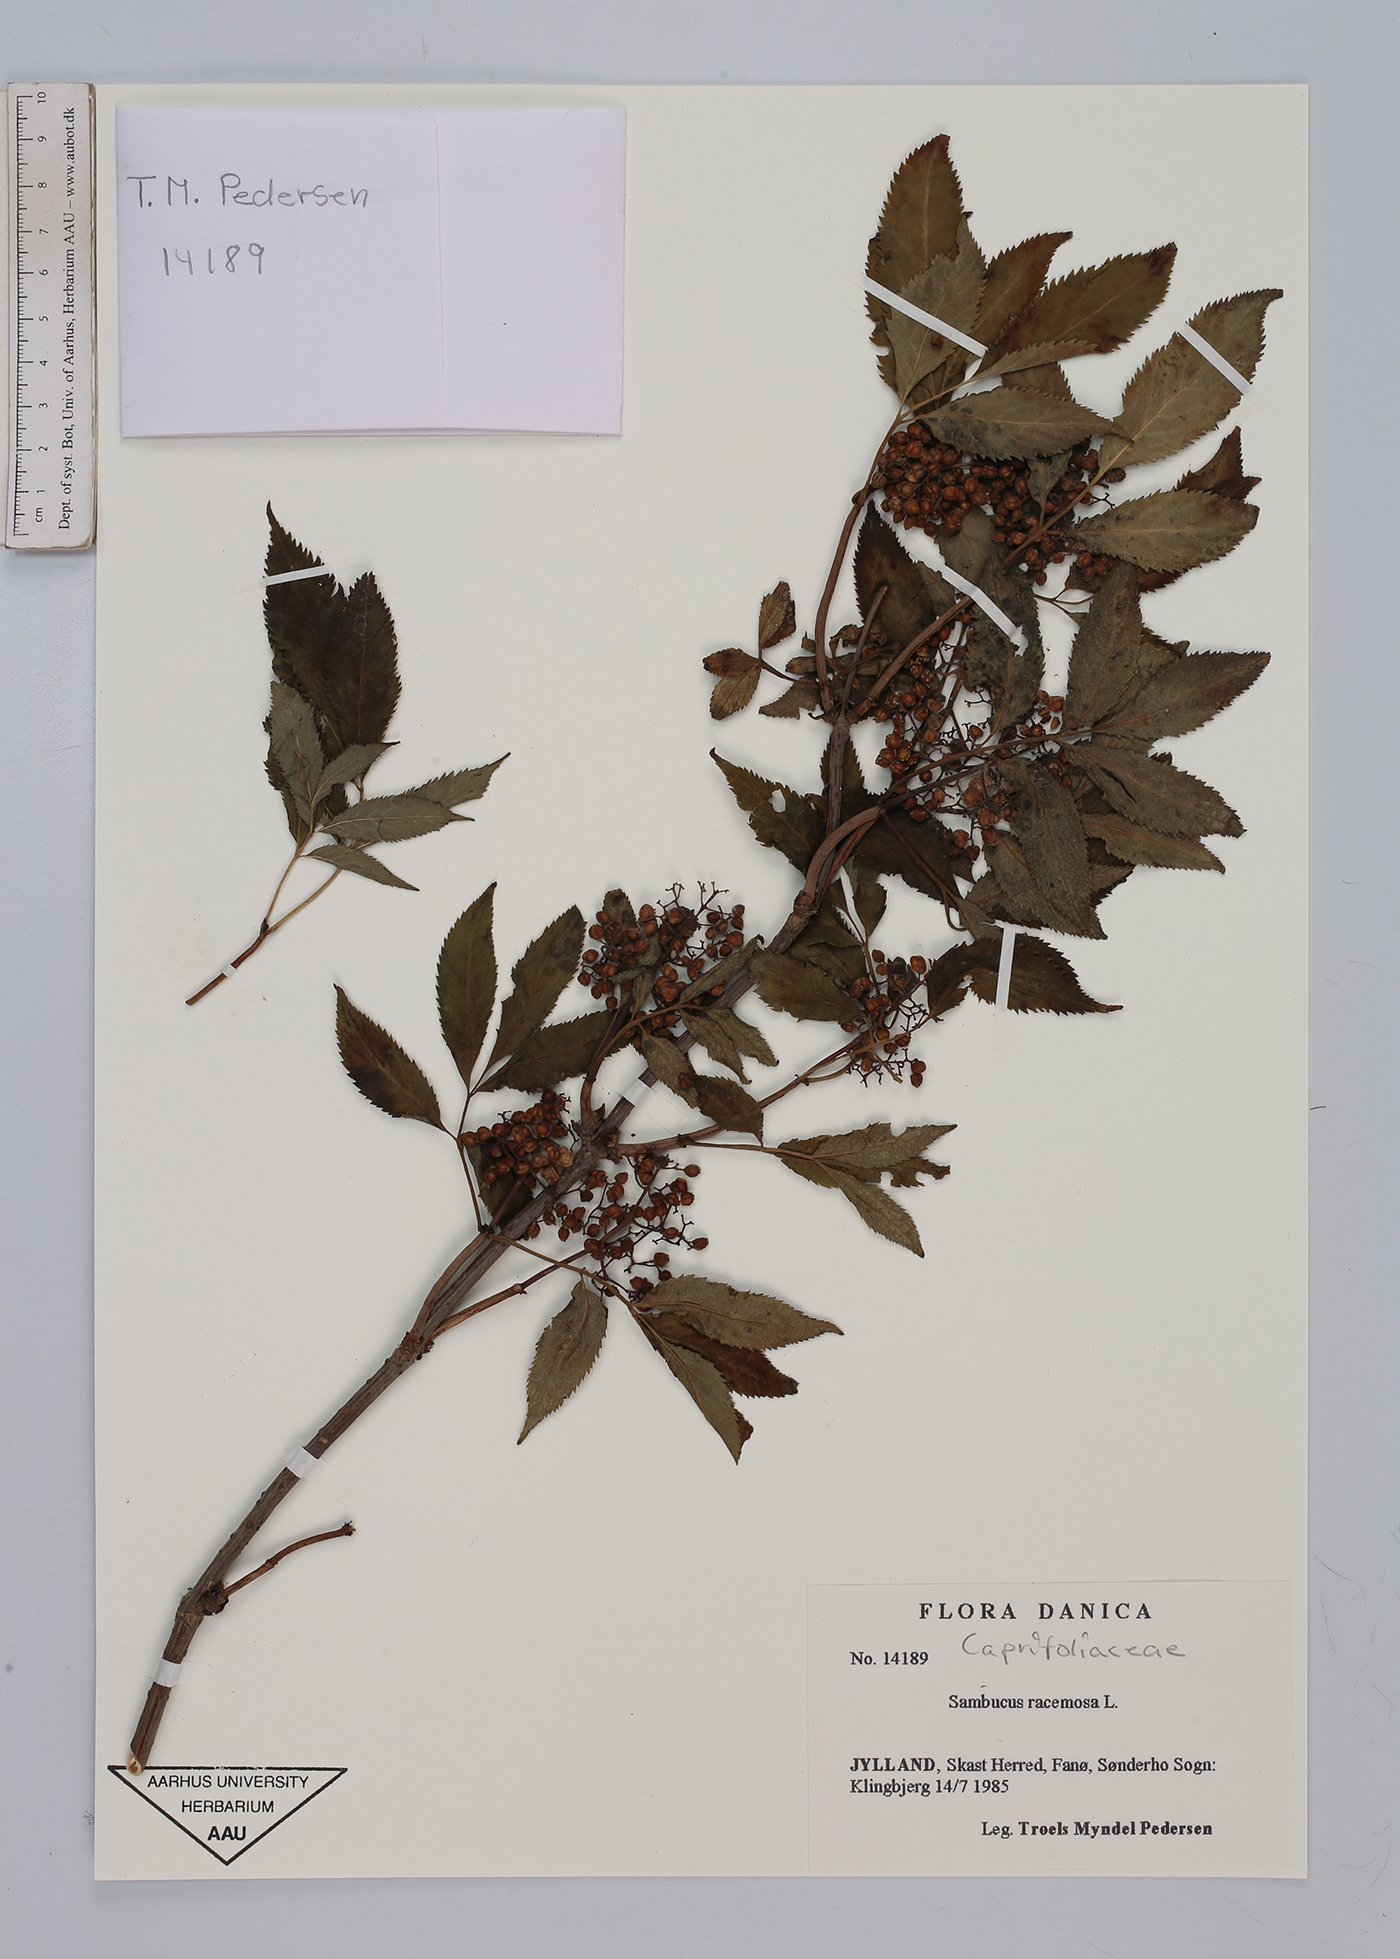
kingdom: Plantae
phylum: Tracheophyta
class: Magnoliopsida
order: Dipsacales
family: Viburnaceae
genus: Sambucus
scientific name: Sambucus racemosa
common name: Red-berried elder
